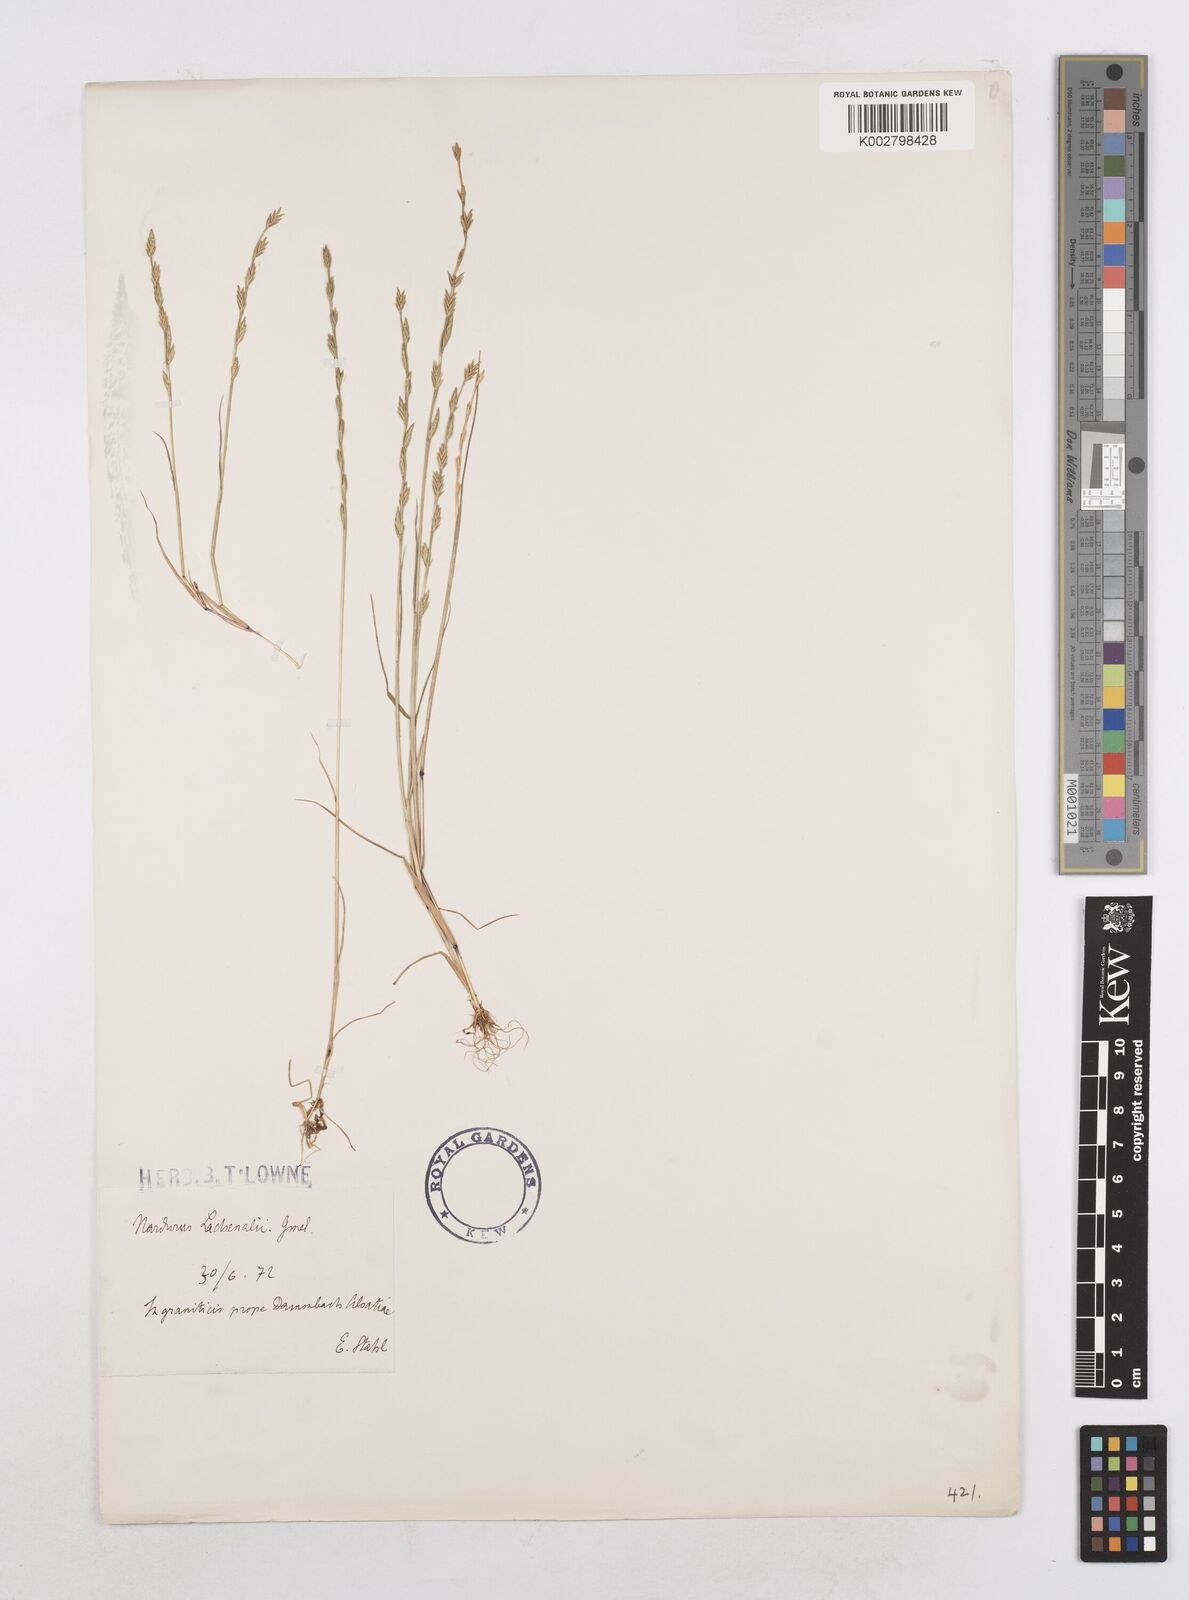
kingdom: Plantae
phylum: Tracheophyta
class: Liliopsida
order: Poales
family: Poaceae
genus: Festuca
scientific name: Festuca lachenalii
